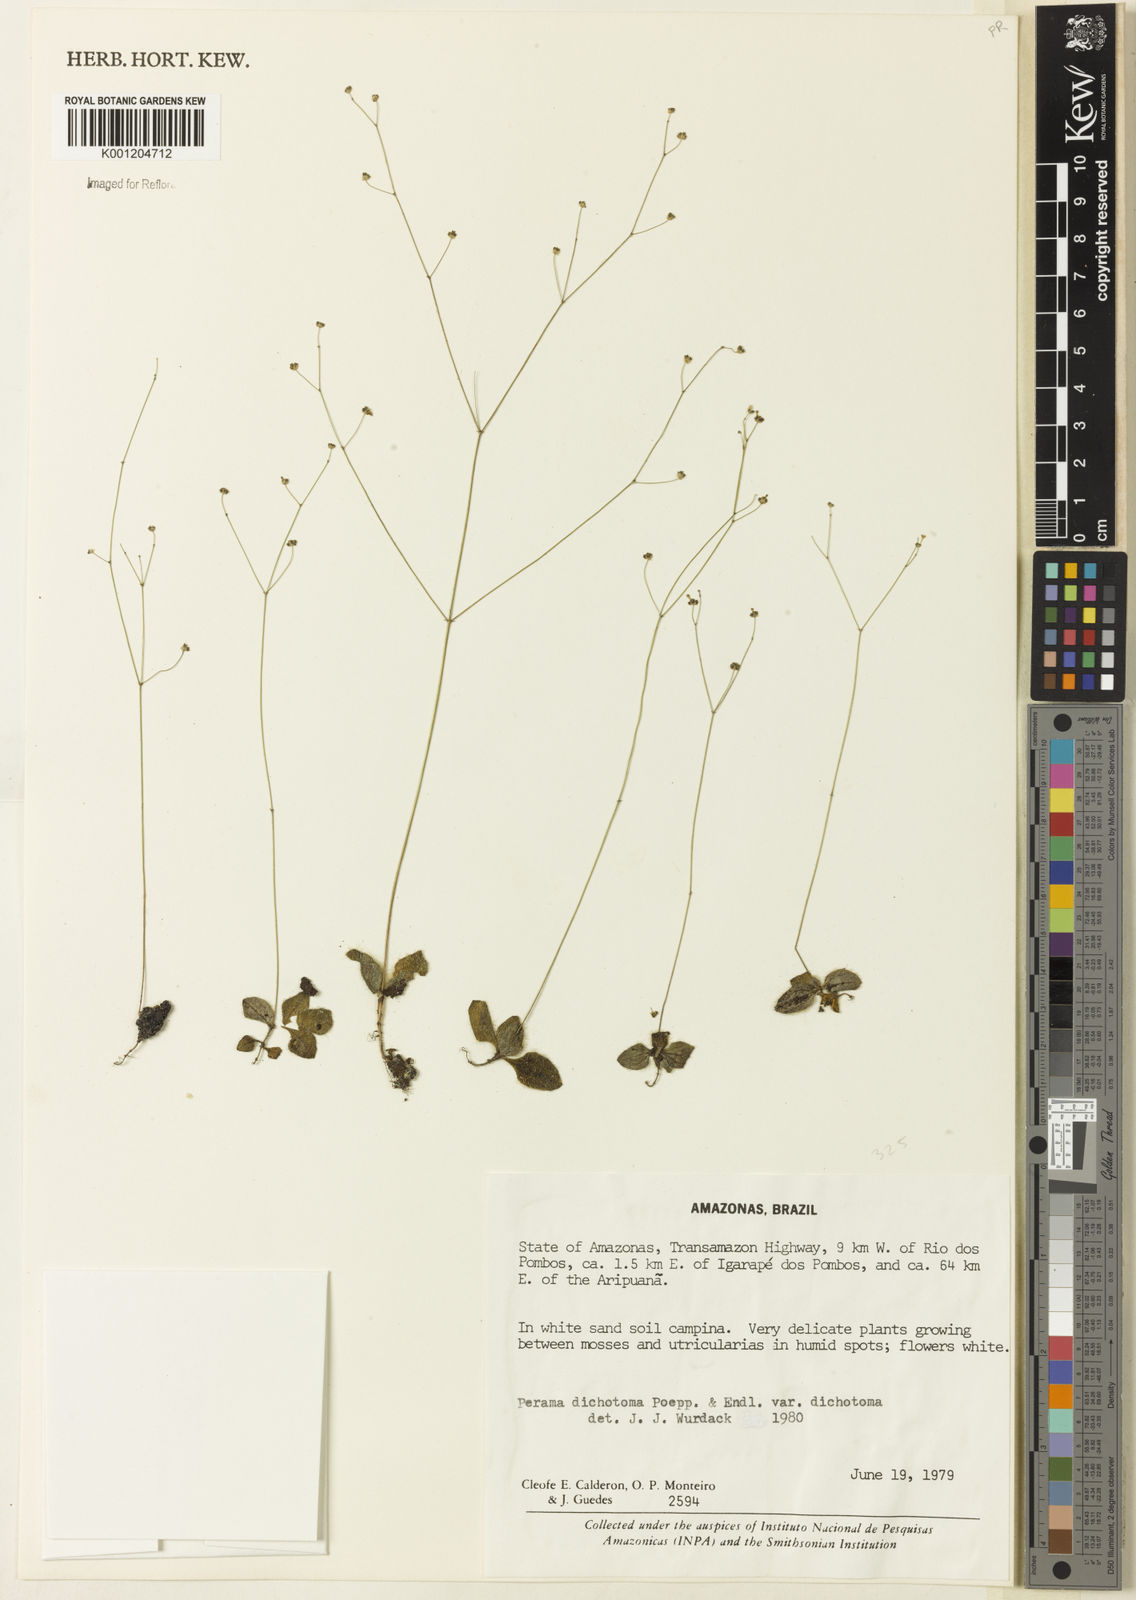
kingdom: Plantae
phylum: Tracheophyta
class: Magnoliopsida
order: Gentianales
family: Rubiaceae
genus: Perama
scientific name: Perama dichotoma
